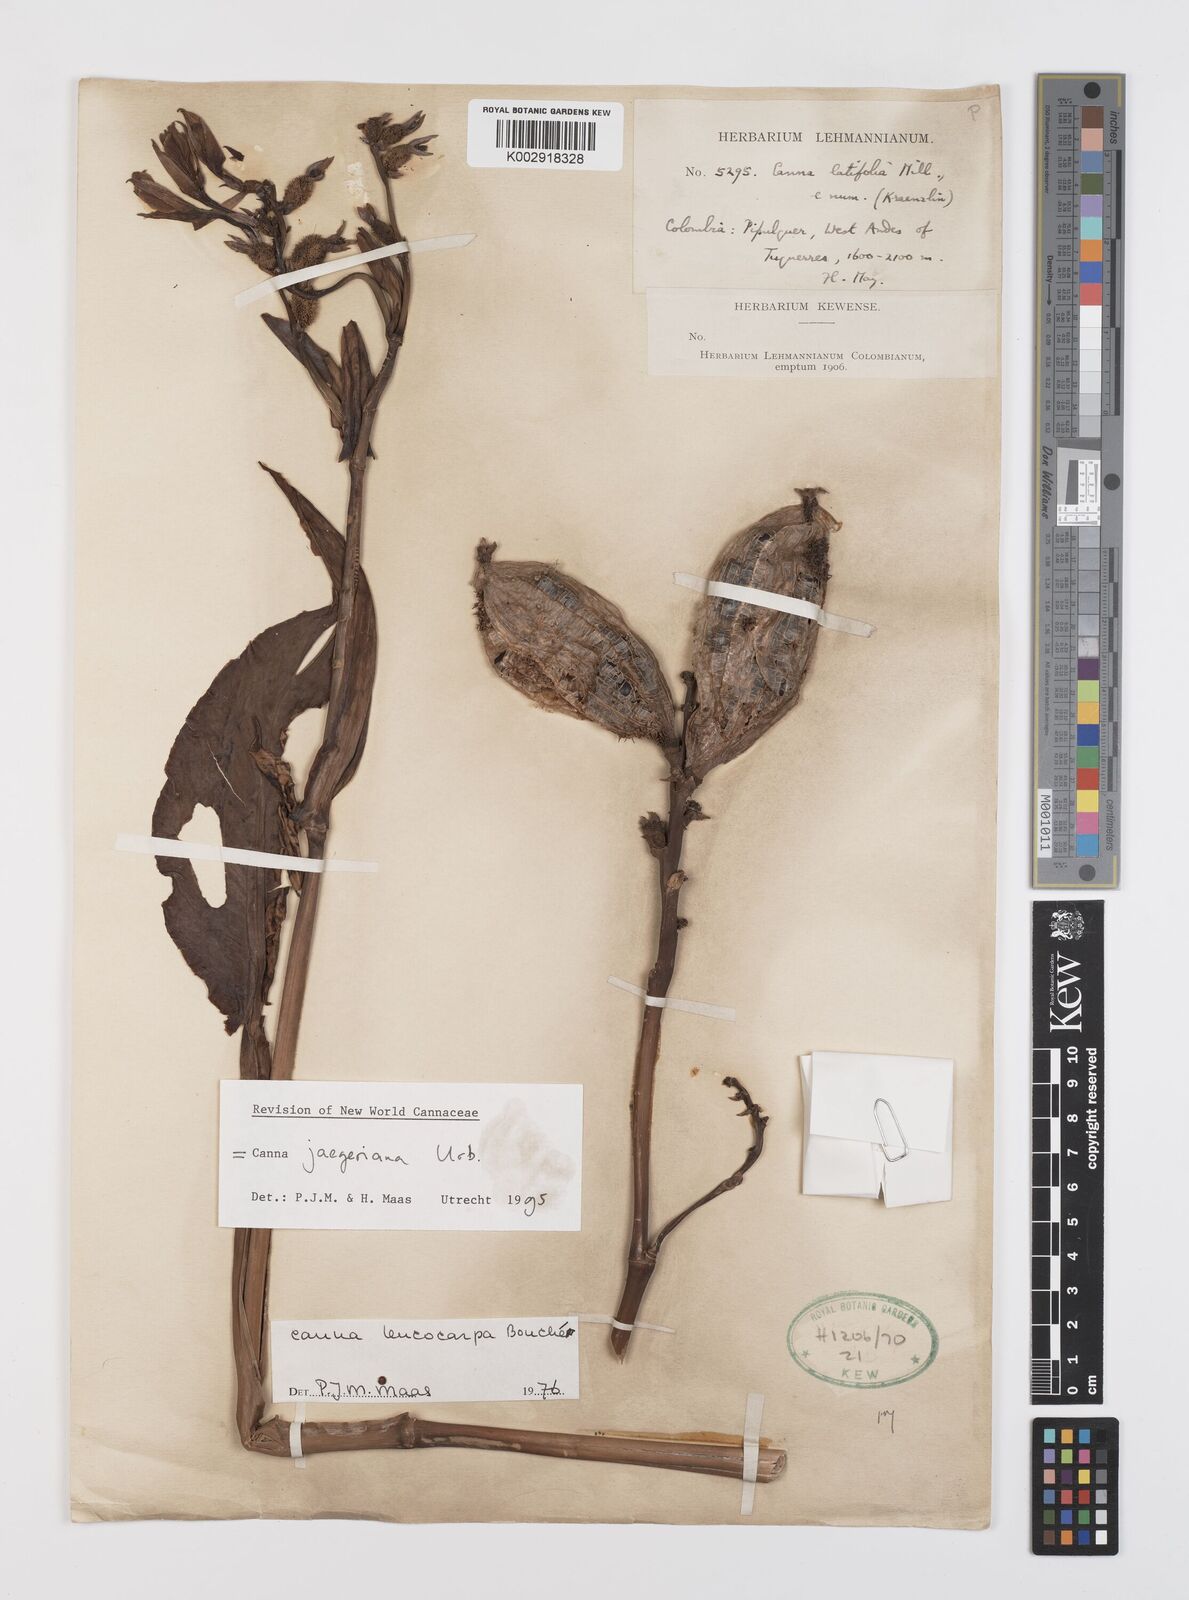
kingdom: Plantae
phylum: Tracheophyta
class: Liliopsida
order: Zingiberales
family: Cannaceae
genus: Canna
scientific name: Canna jaegeriana
